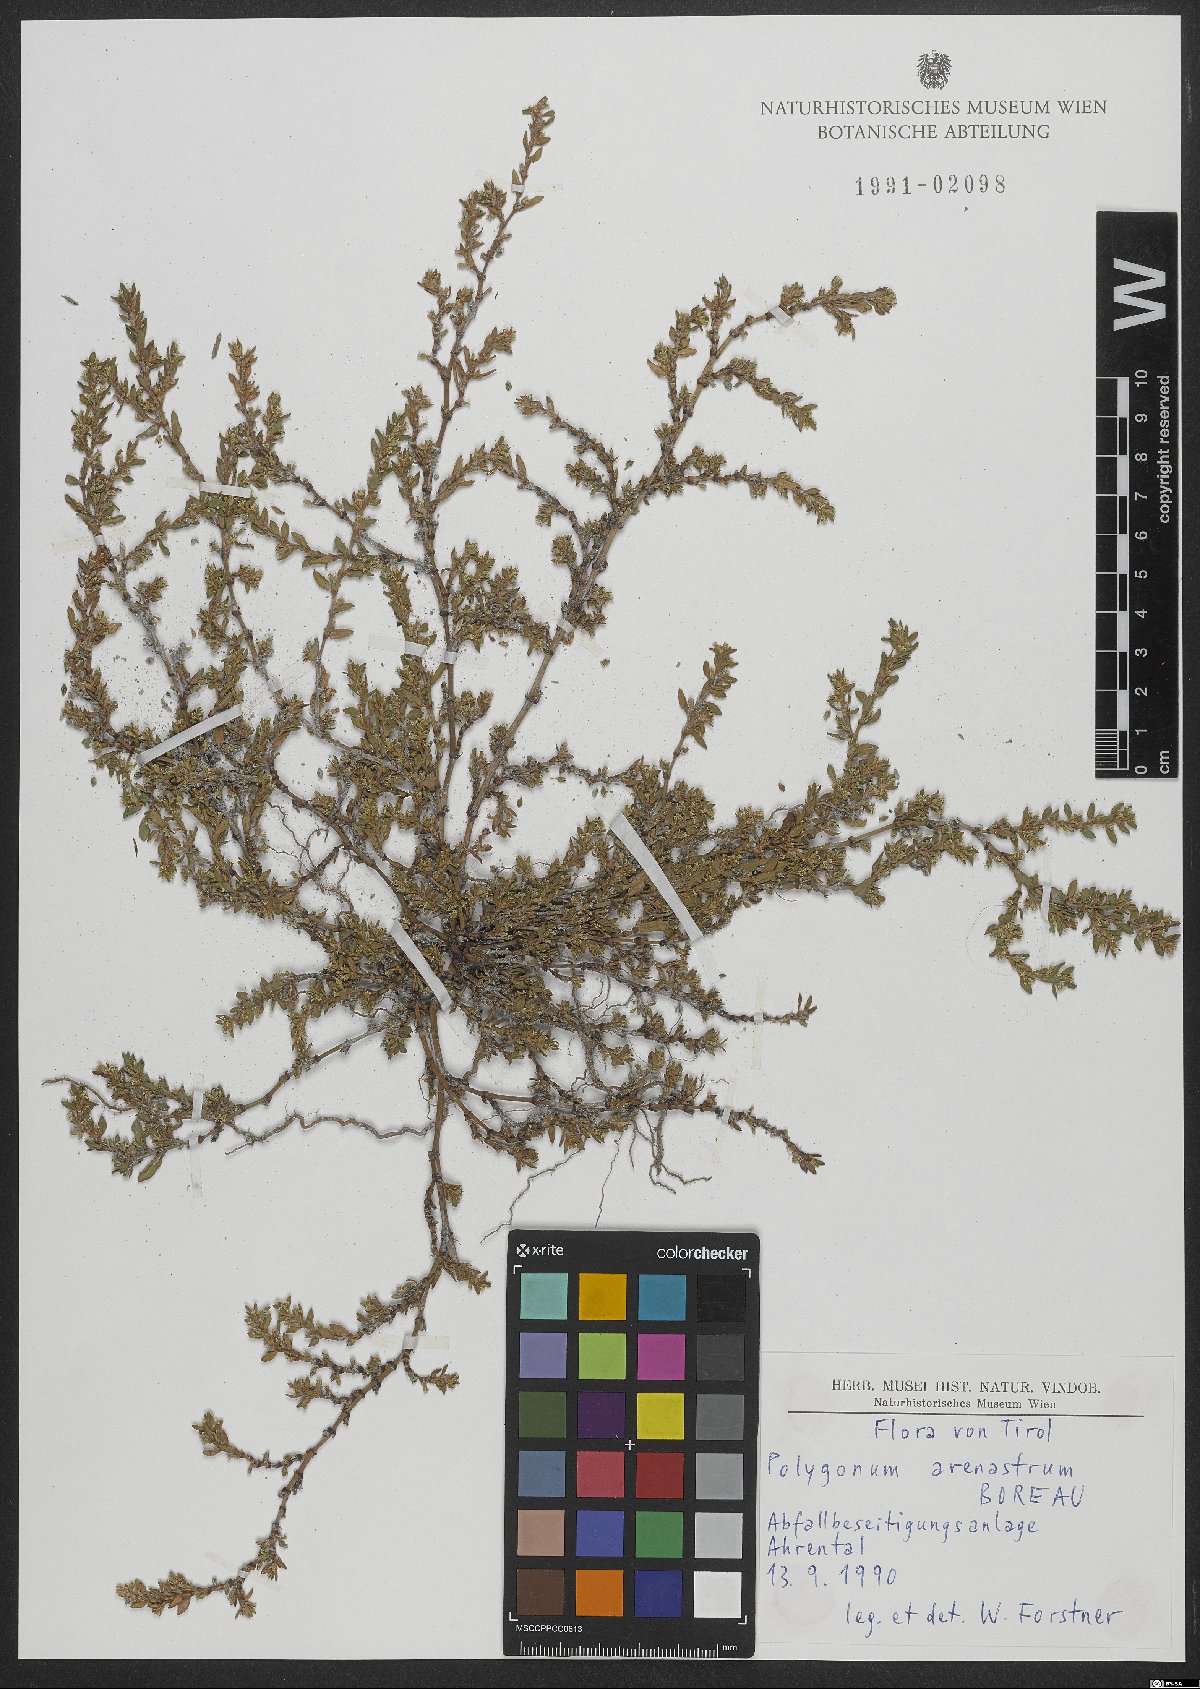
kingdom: Plantae
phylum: Tracheophyta
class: Magnoliopsida
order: Caryophyllales
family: Polygonaceae
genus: Polygonum
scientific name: Polygonum arenastrum
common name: Equal-leaved knotgrass
